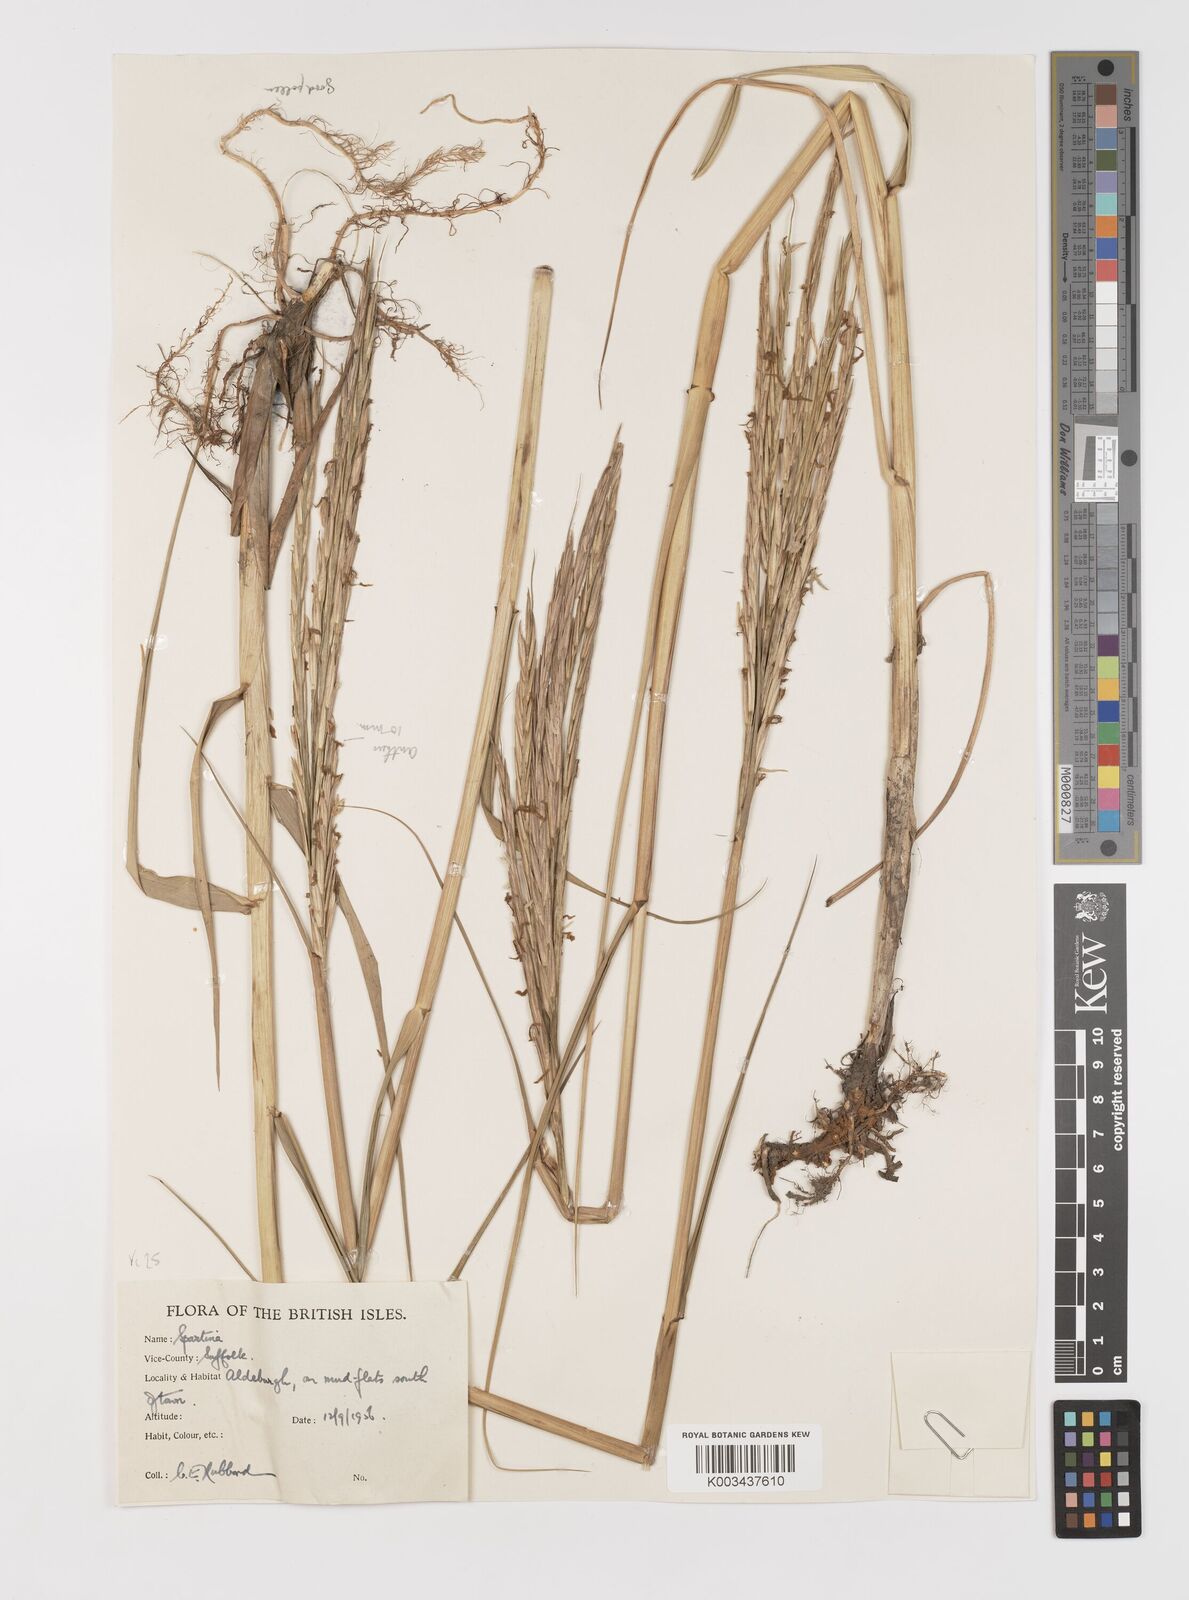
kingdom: Plantae
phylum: Tracheophyta
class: Liliopsida
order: Poales
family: Poaceae
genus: Sporobolus
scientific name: Sporobolus anglicus
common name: English cordgrass
